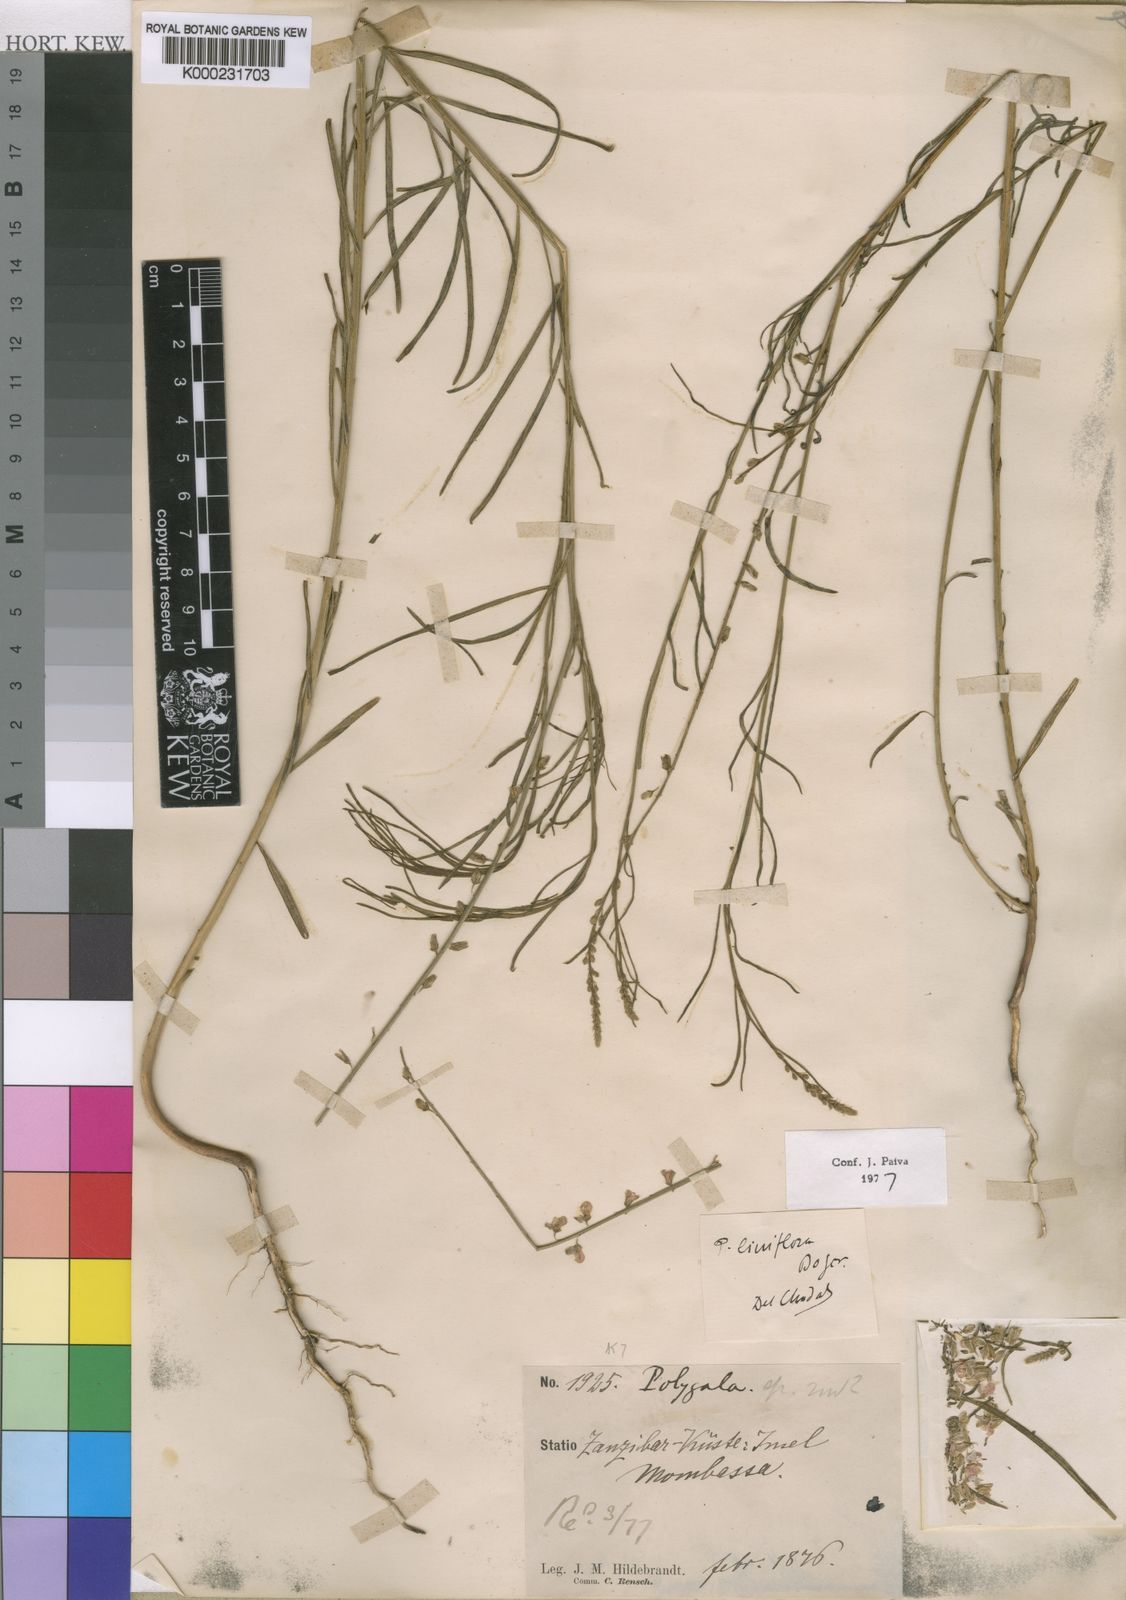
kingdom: Plantae
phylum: Tracheophyta
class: Magnoliopsida
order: Fabales
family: Polygalaceae
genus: Polygala
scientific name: Polygala conosperma
